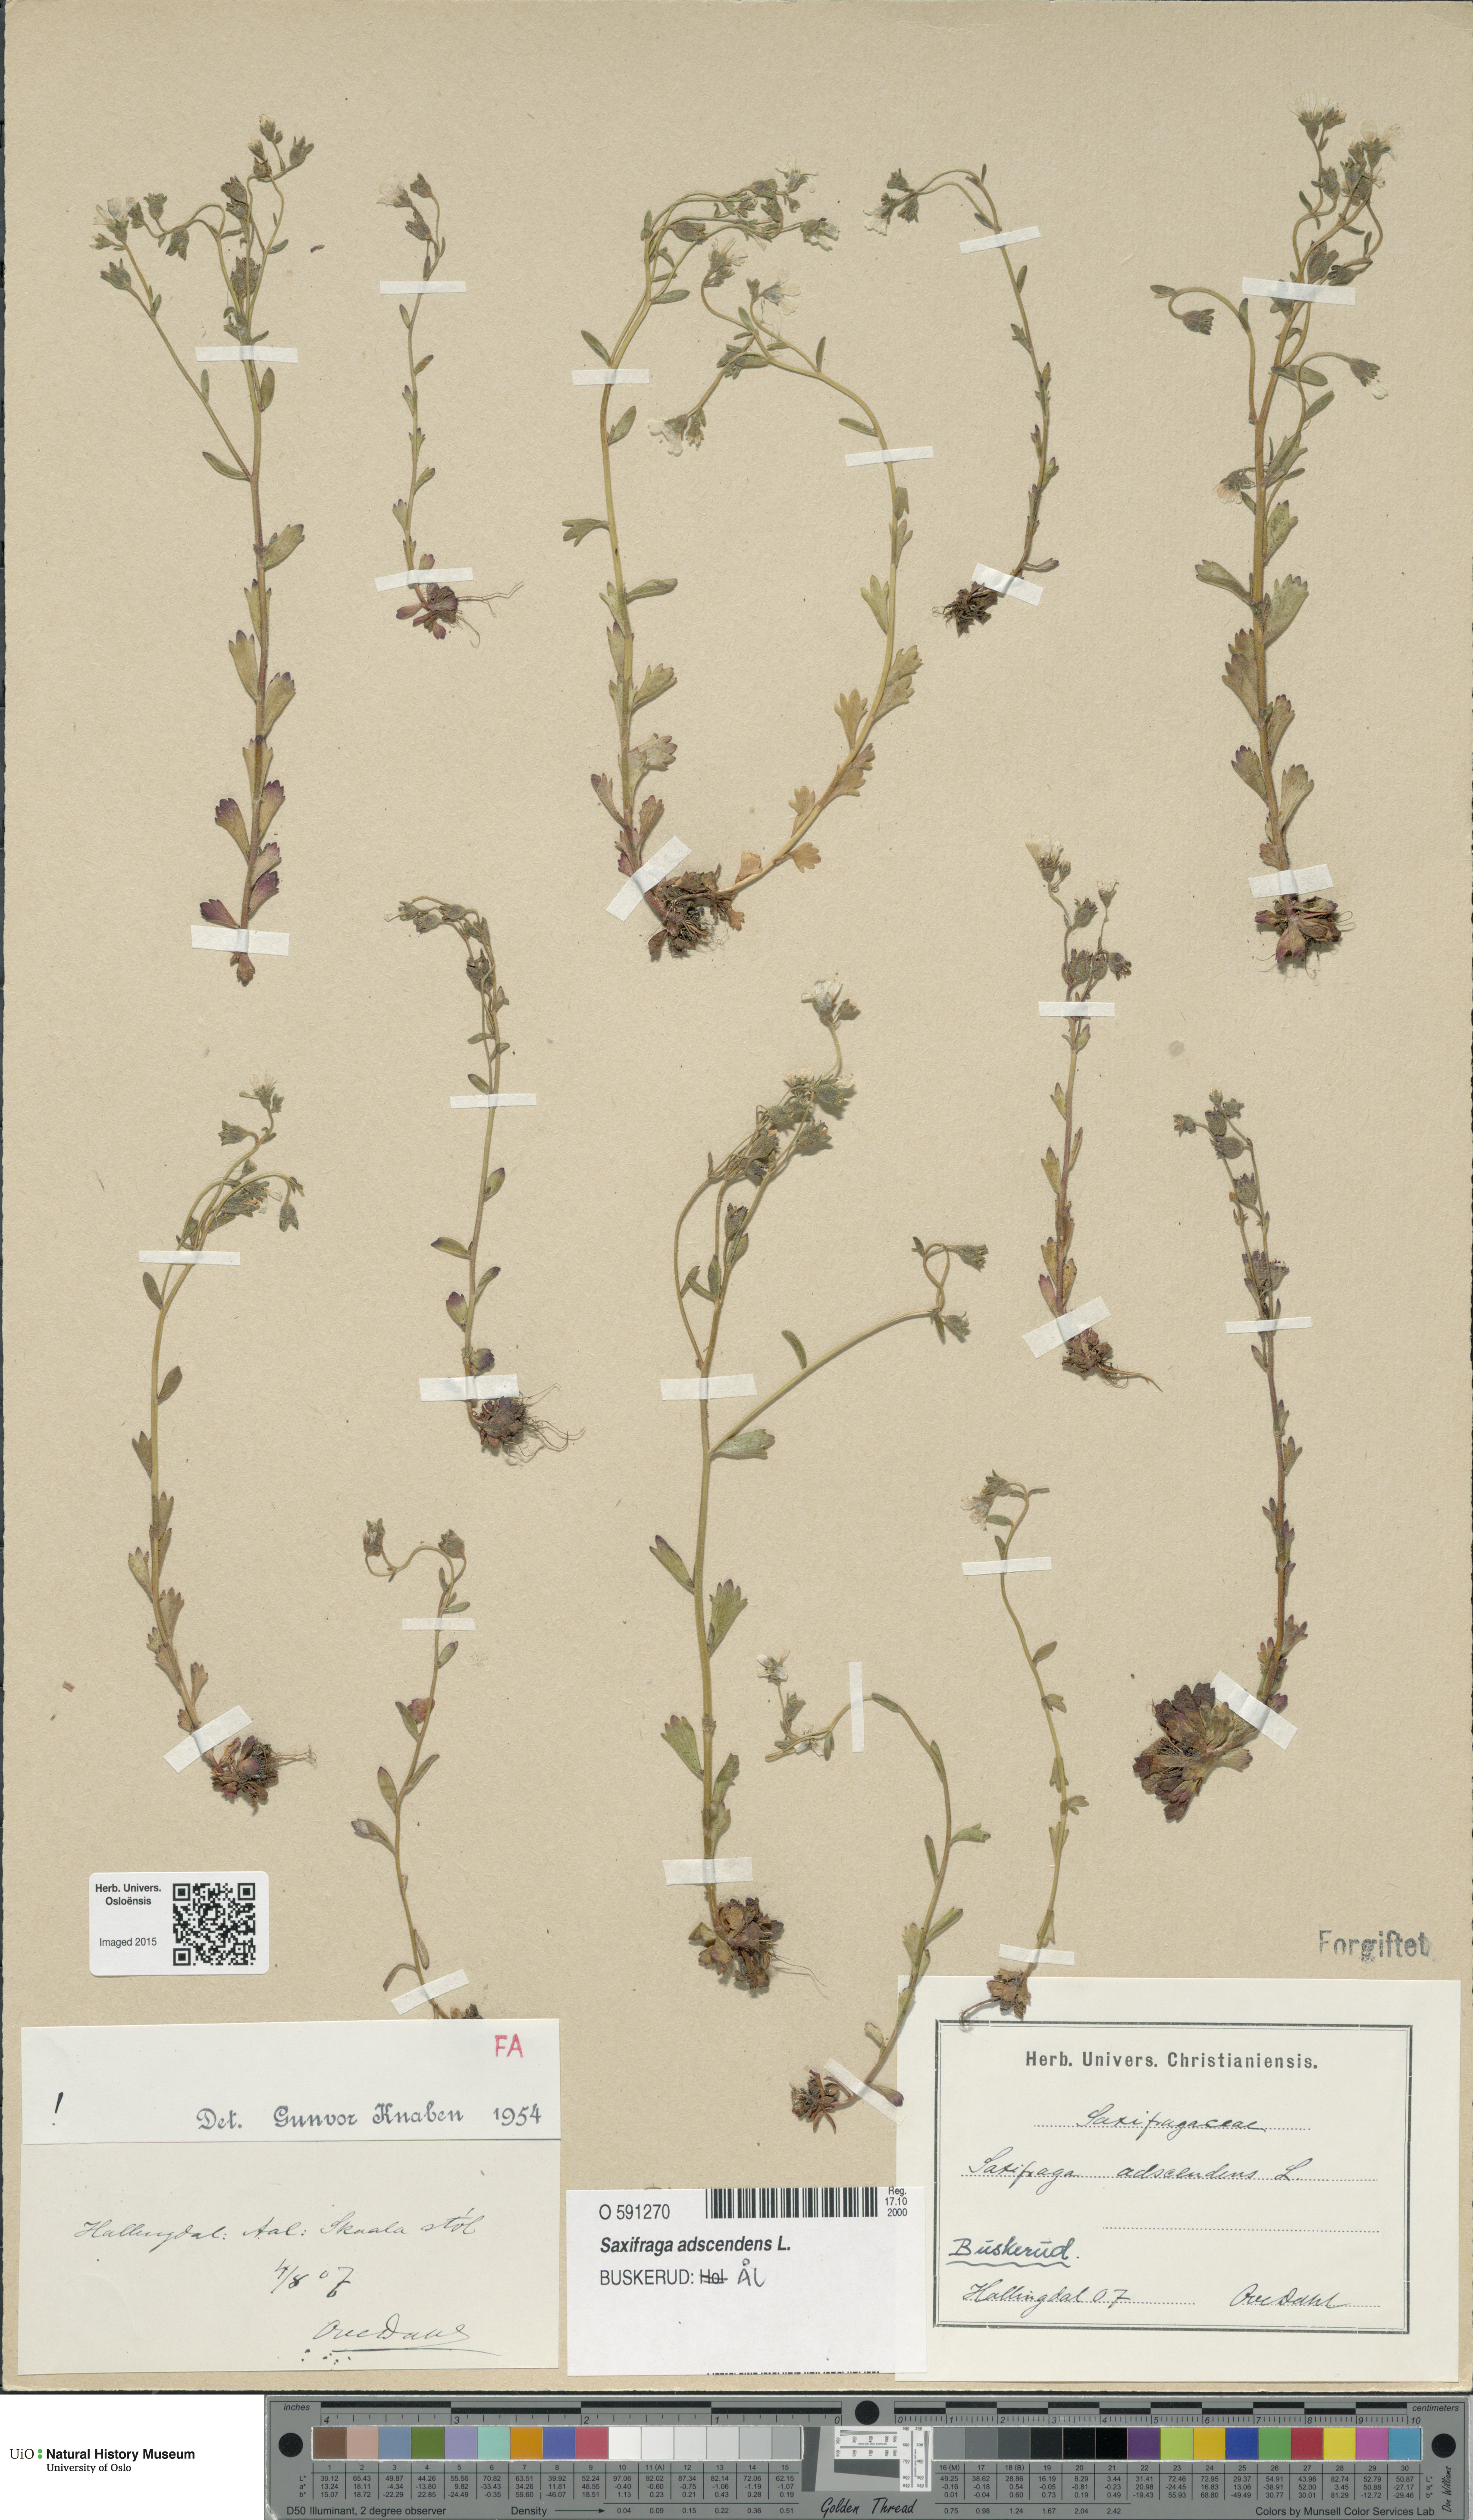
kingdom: Plantae
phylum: Tracheophyta
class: Magnoliopsida
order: Saxifragales
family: Saxifragaceae
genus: Saxifraga
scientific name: Saxifraga adscendens
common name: Ascending saxifrage
